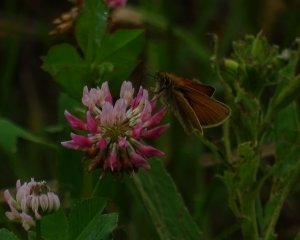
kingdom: Animalia
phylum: Arthropoda
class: Insecta
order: Lepidoptera
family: Hesperiidae
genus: Thymelicus
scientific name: Thymelicus lineola
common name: European Skipper
